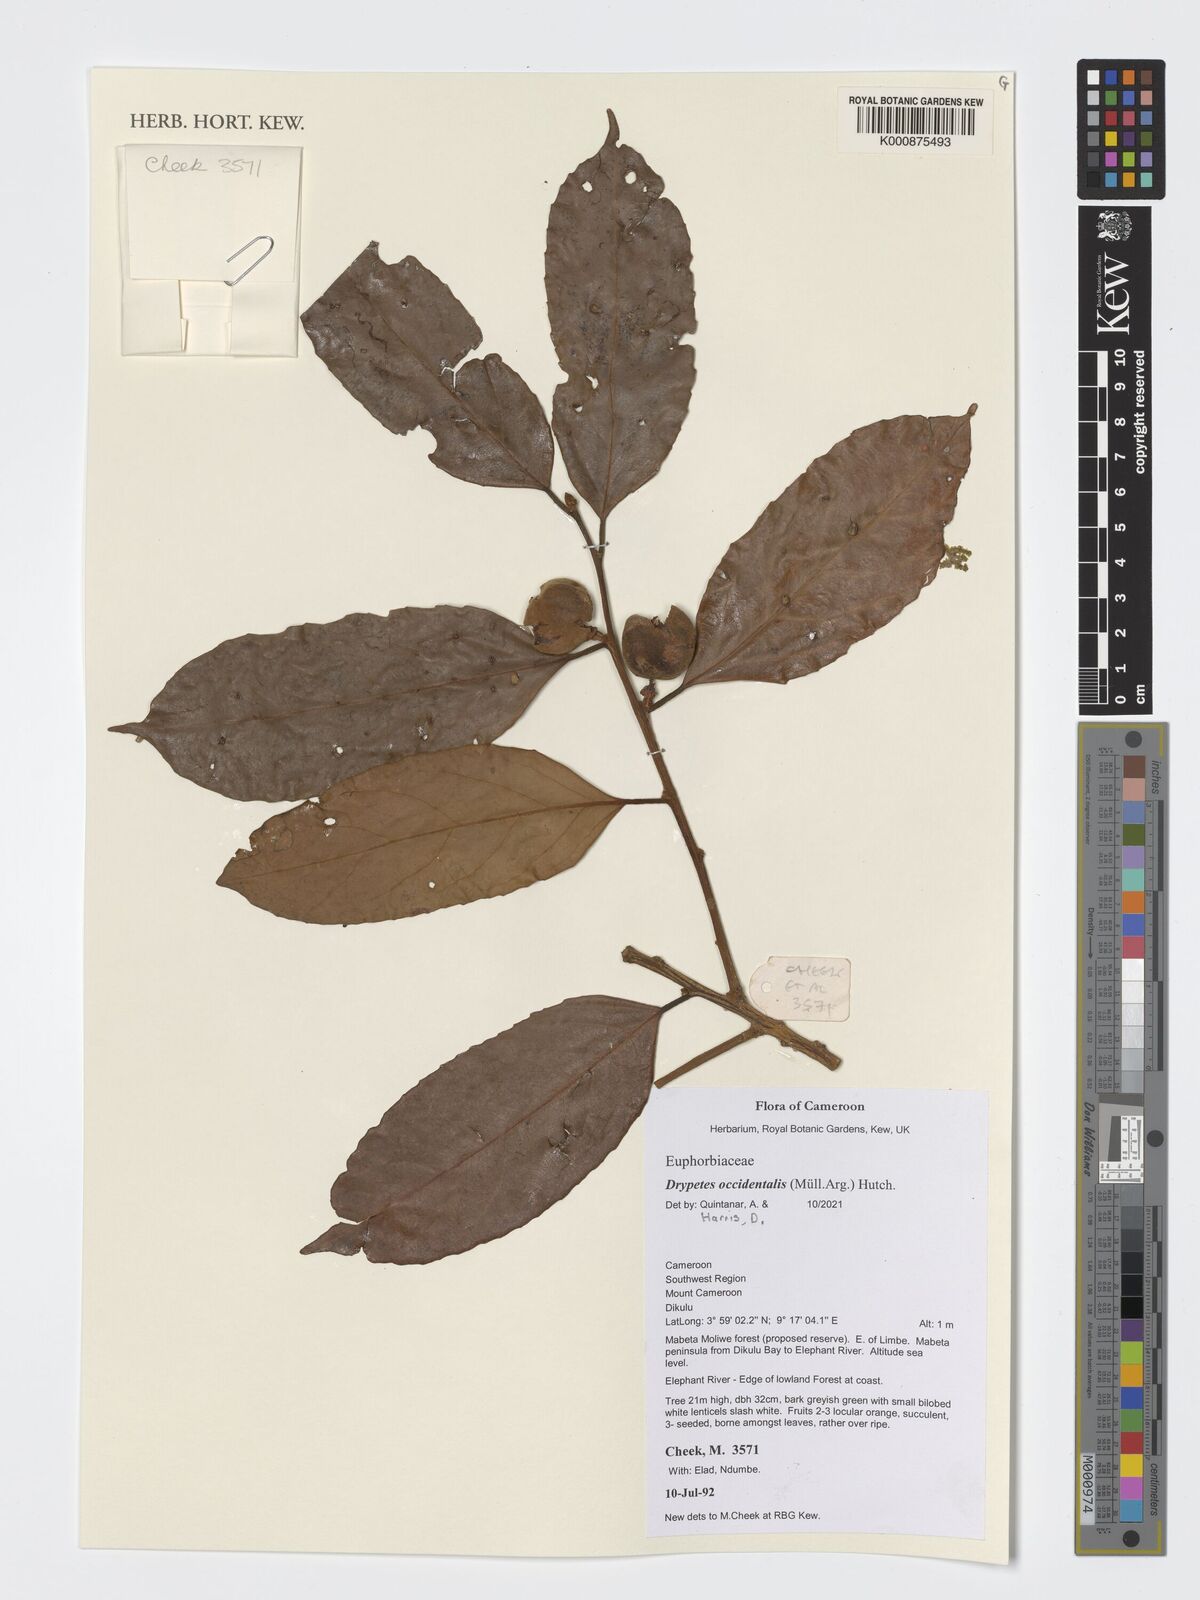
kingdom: Plantae
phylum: Tracheophyta
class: Magnoliopsida
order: Malpighiales
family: Putranjivaceae
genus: Drypetes
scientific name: Drypetes occidentalis
